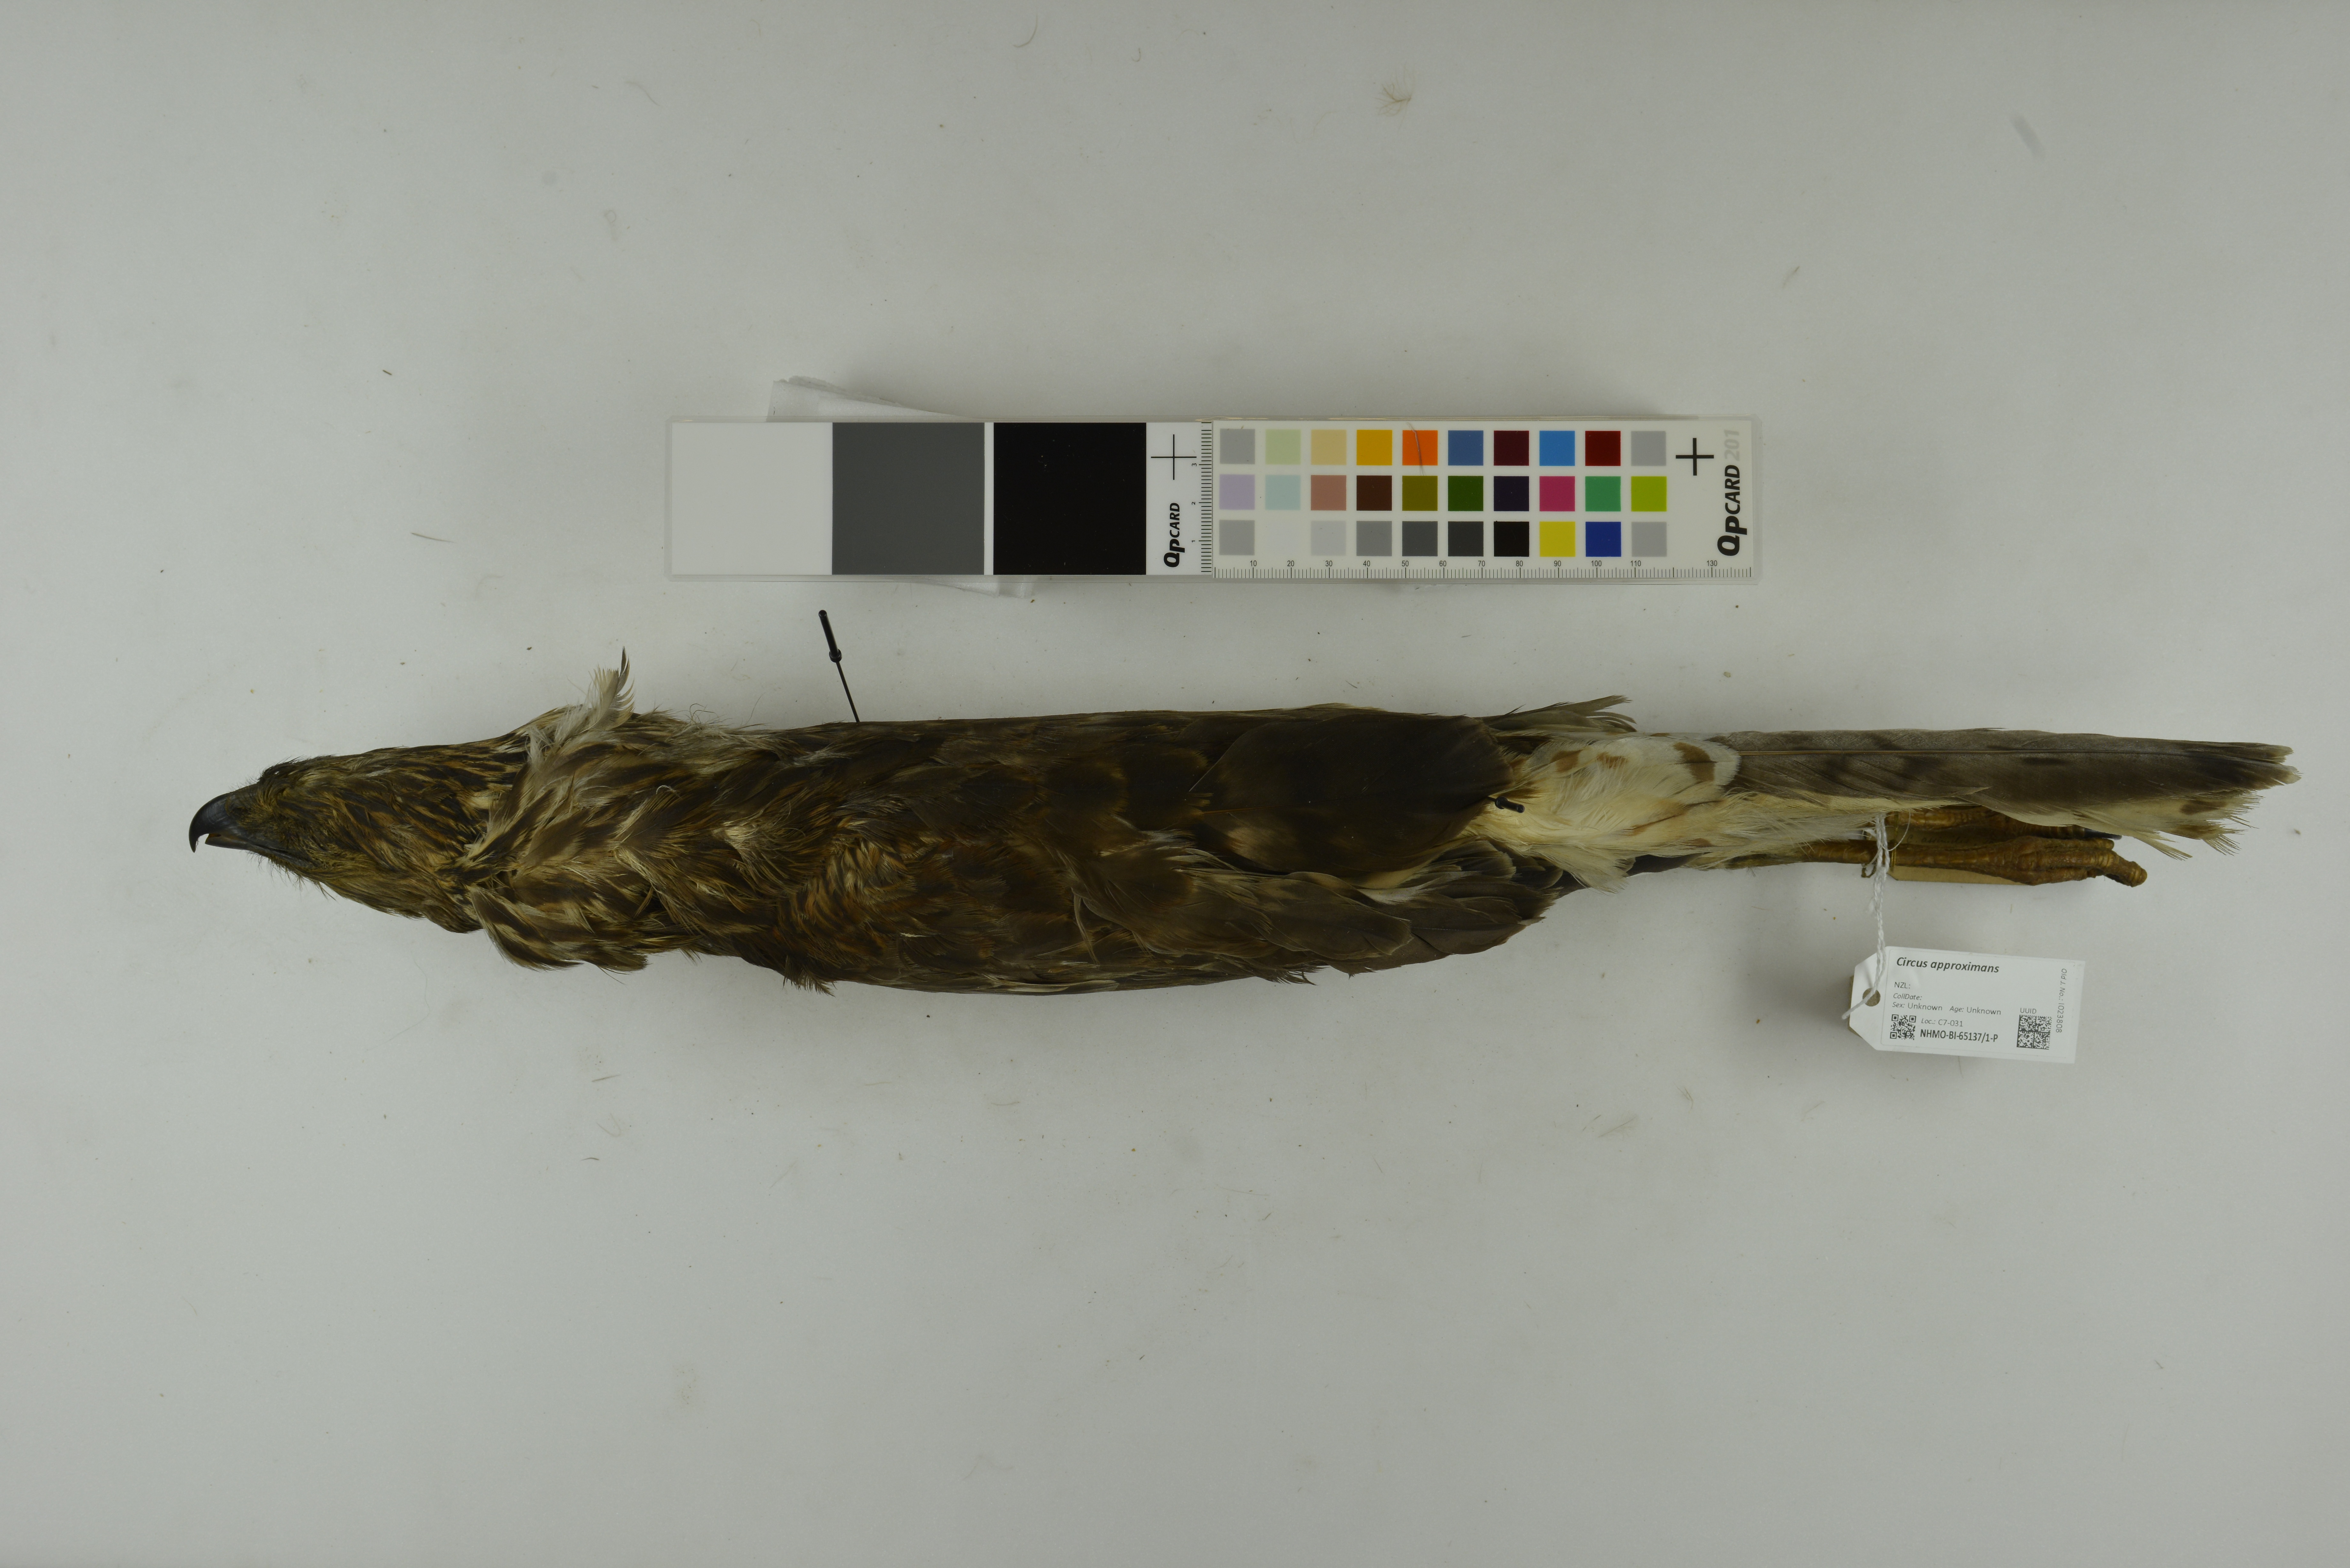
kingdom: Animalia
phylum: Chordata
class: Aves
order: Accipitriformes
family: Accipitridae
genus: Circus
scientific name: Circus approximans
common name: Swamp harrier
